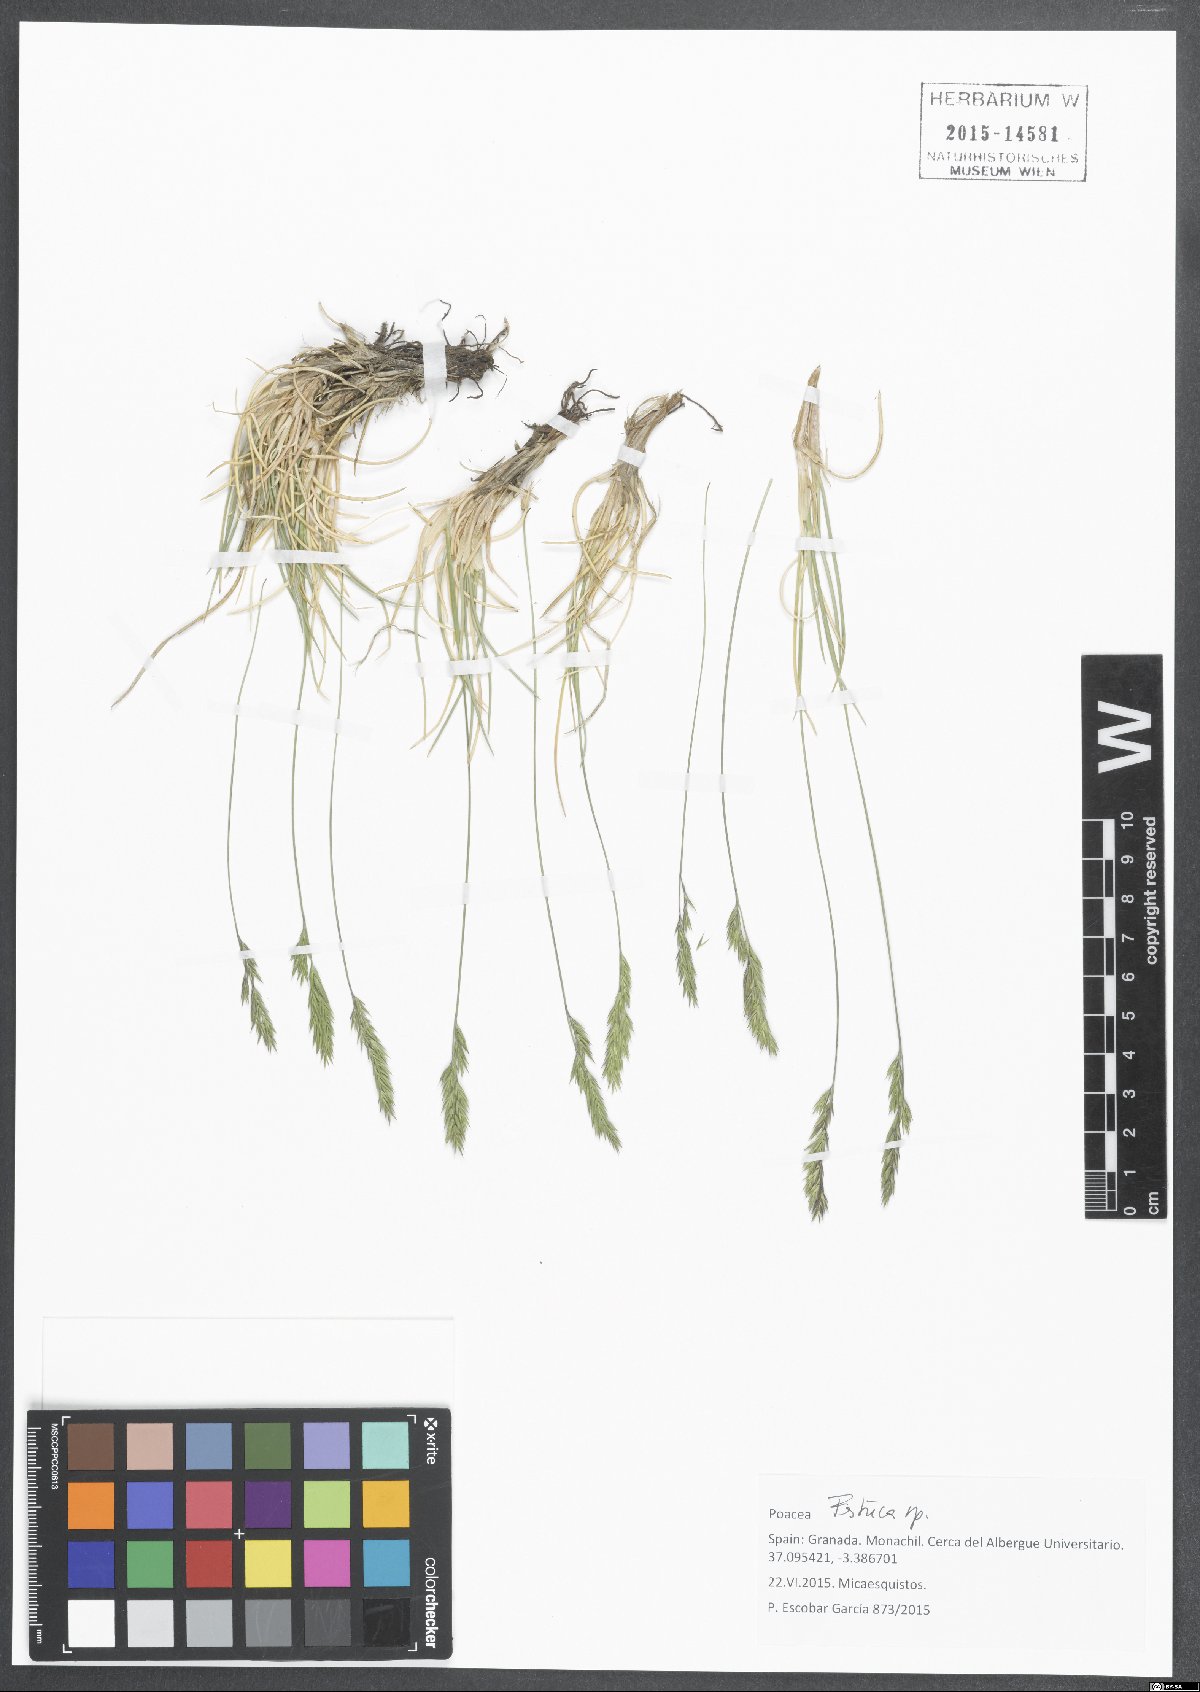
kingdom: Plantae
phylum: Tracheophyta
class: Liliopsida
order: Poales
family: Poaceae
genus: Festuca
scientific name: Festuca
